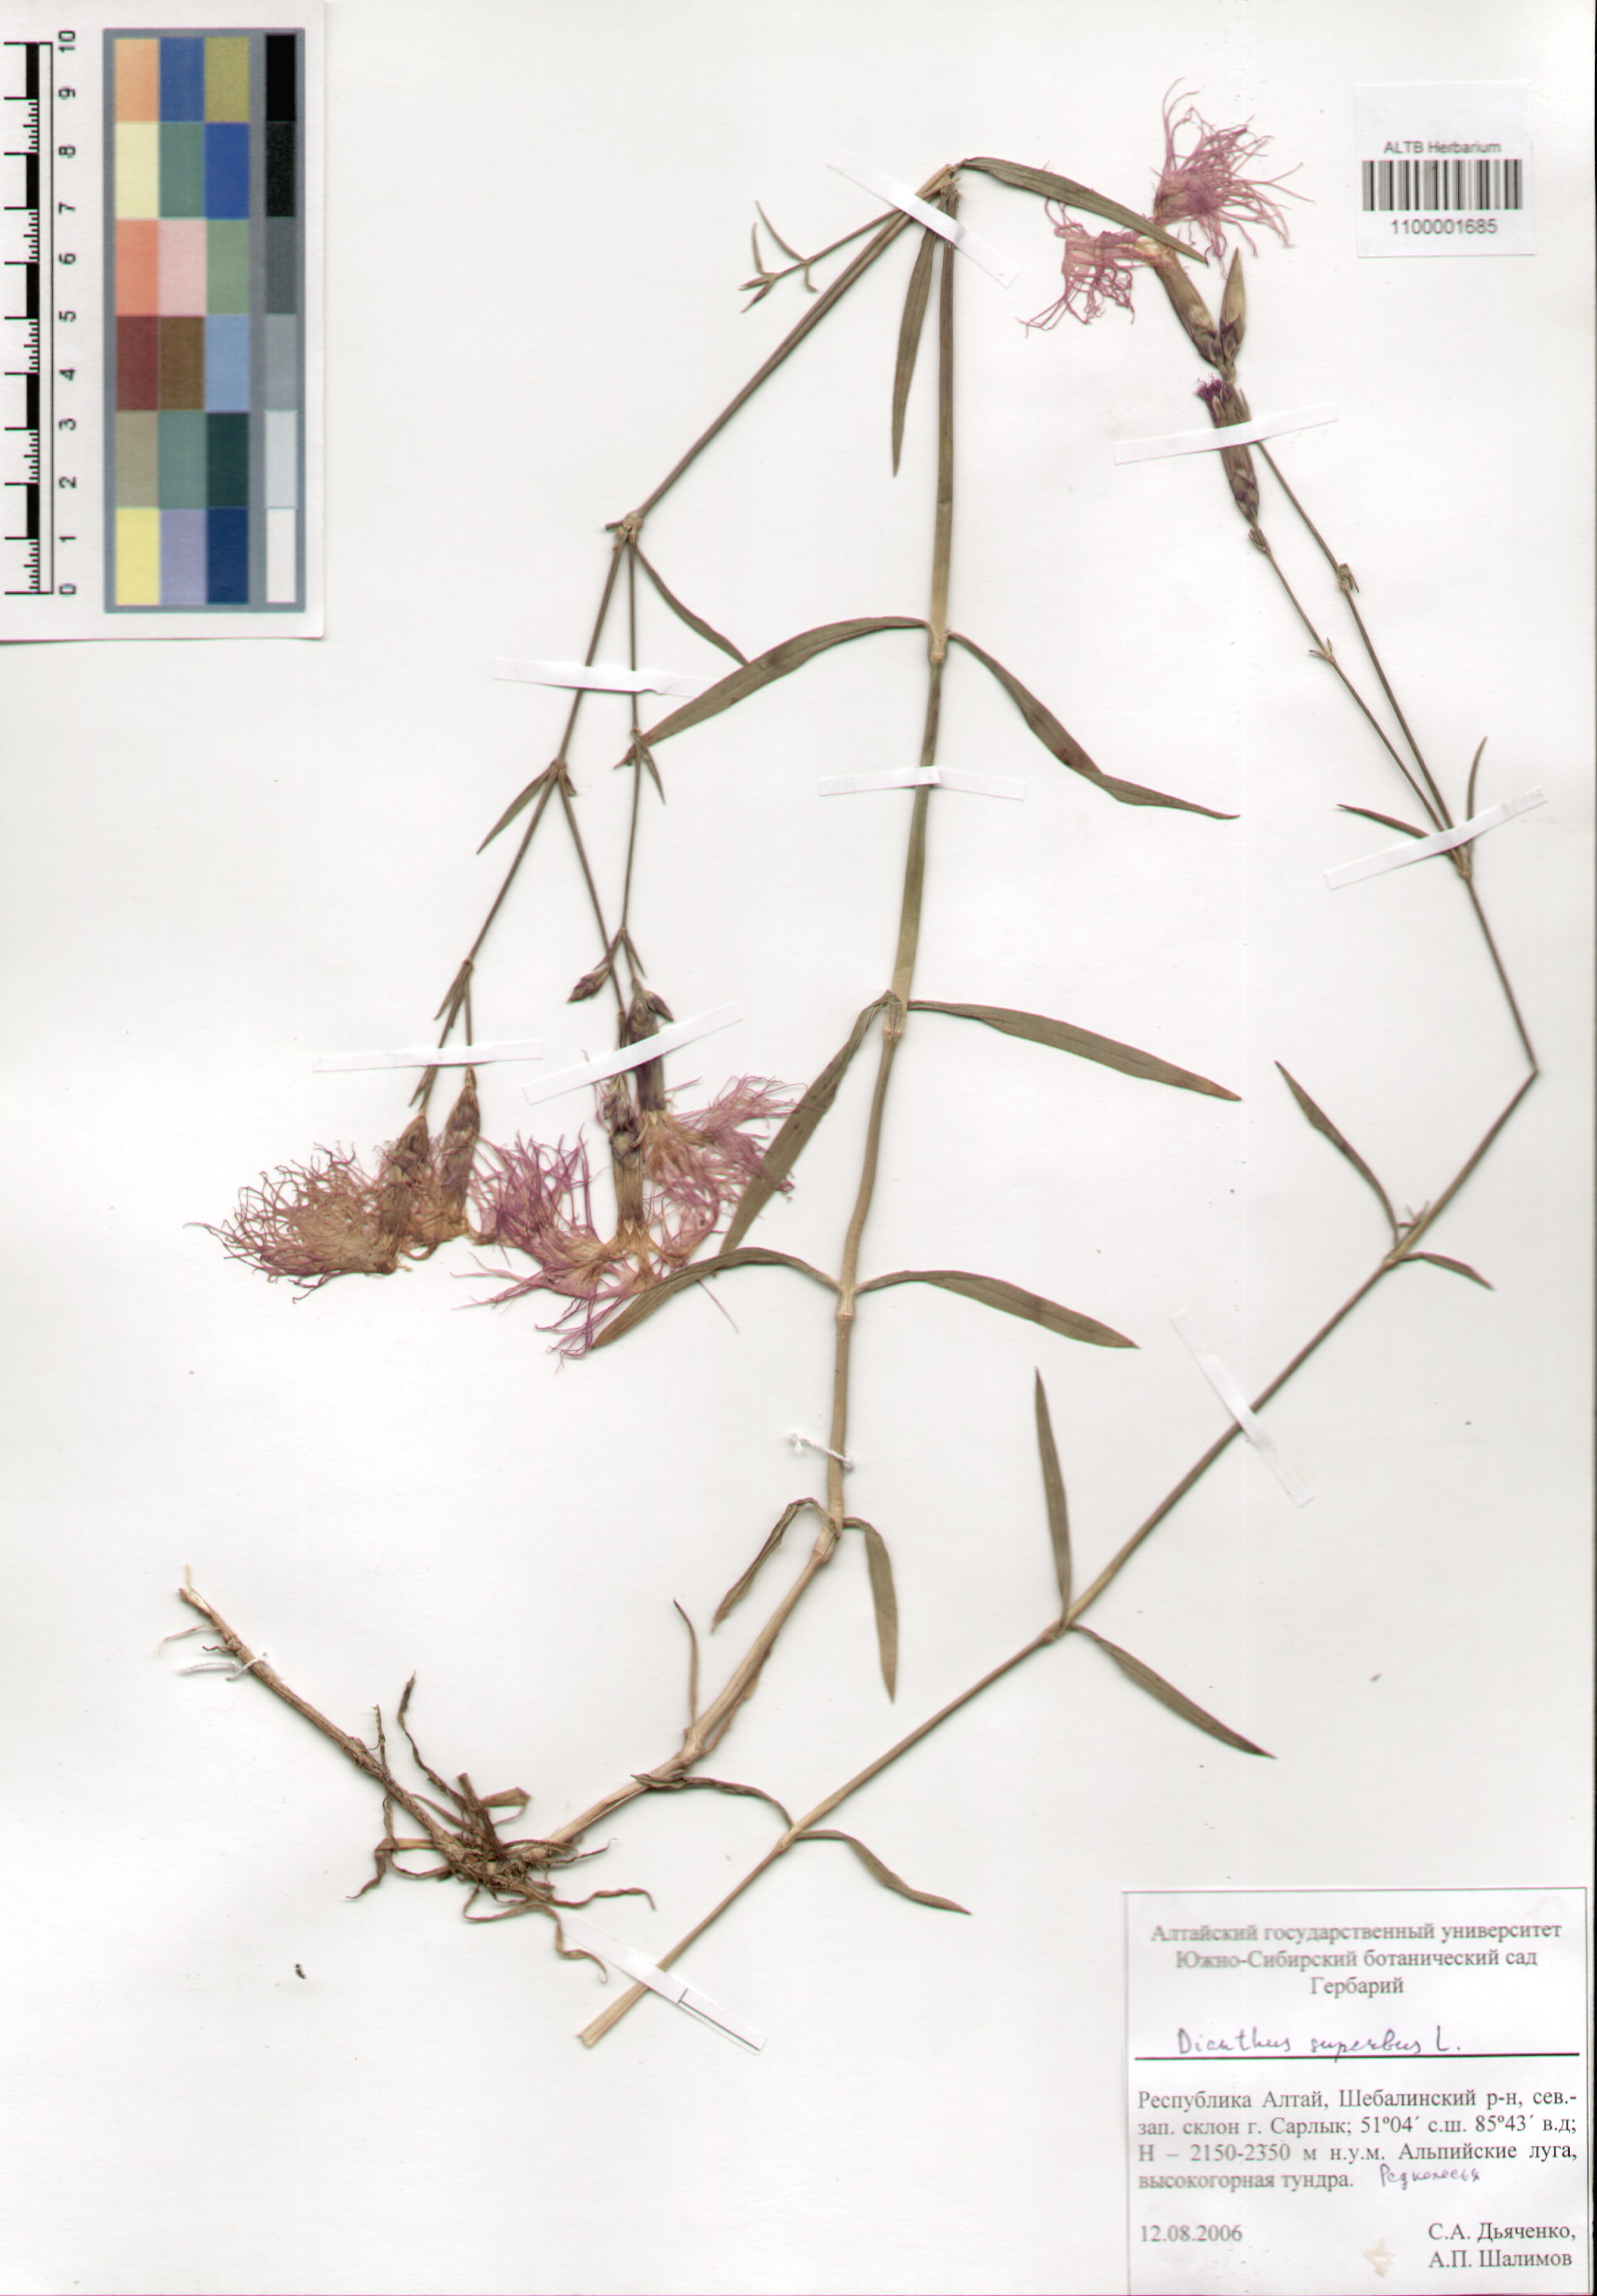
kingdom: Plantae
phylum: Tracheophyta
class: Magnoliopsida
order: Caryophyllales
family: Caryophyllaceae
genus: Dianthus
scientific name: Dianthus superbus
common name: Fringed pink
